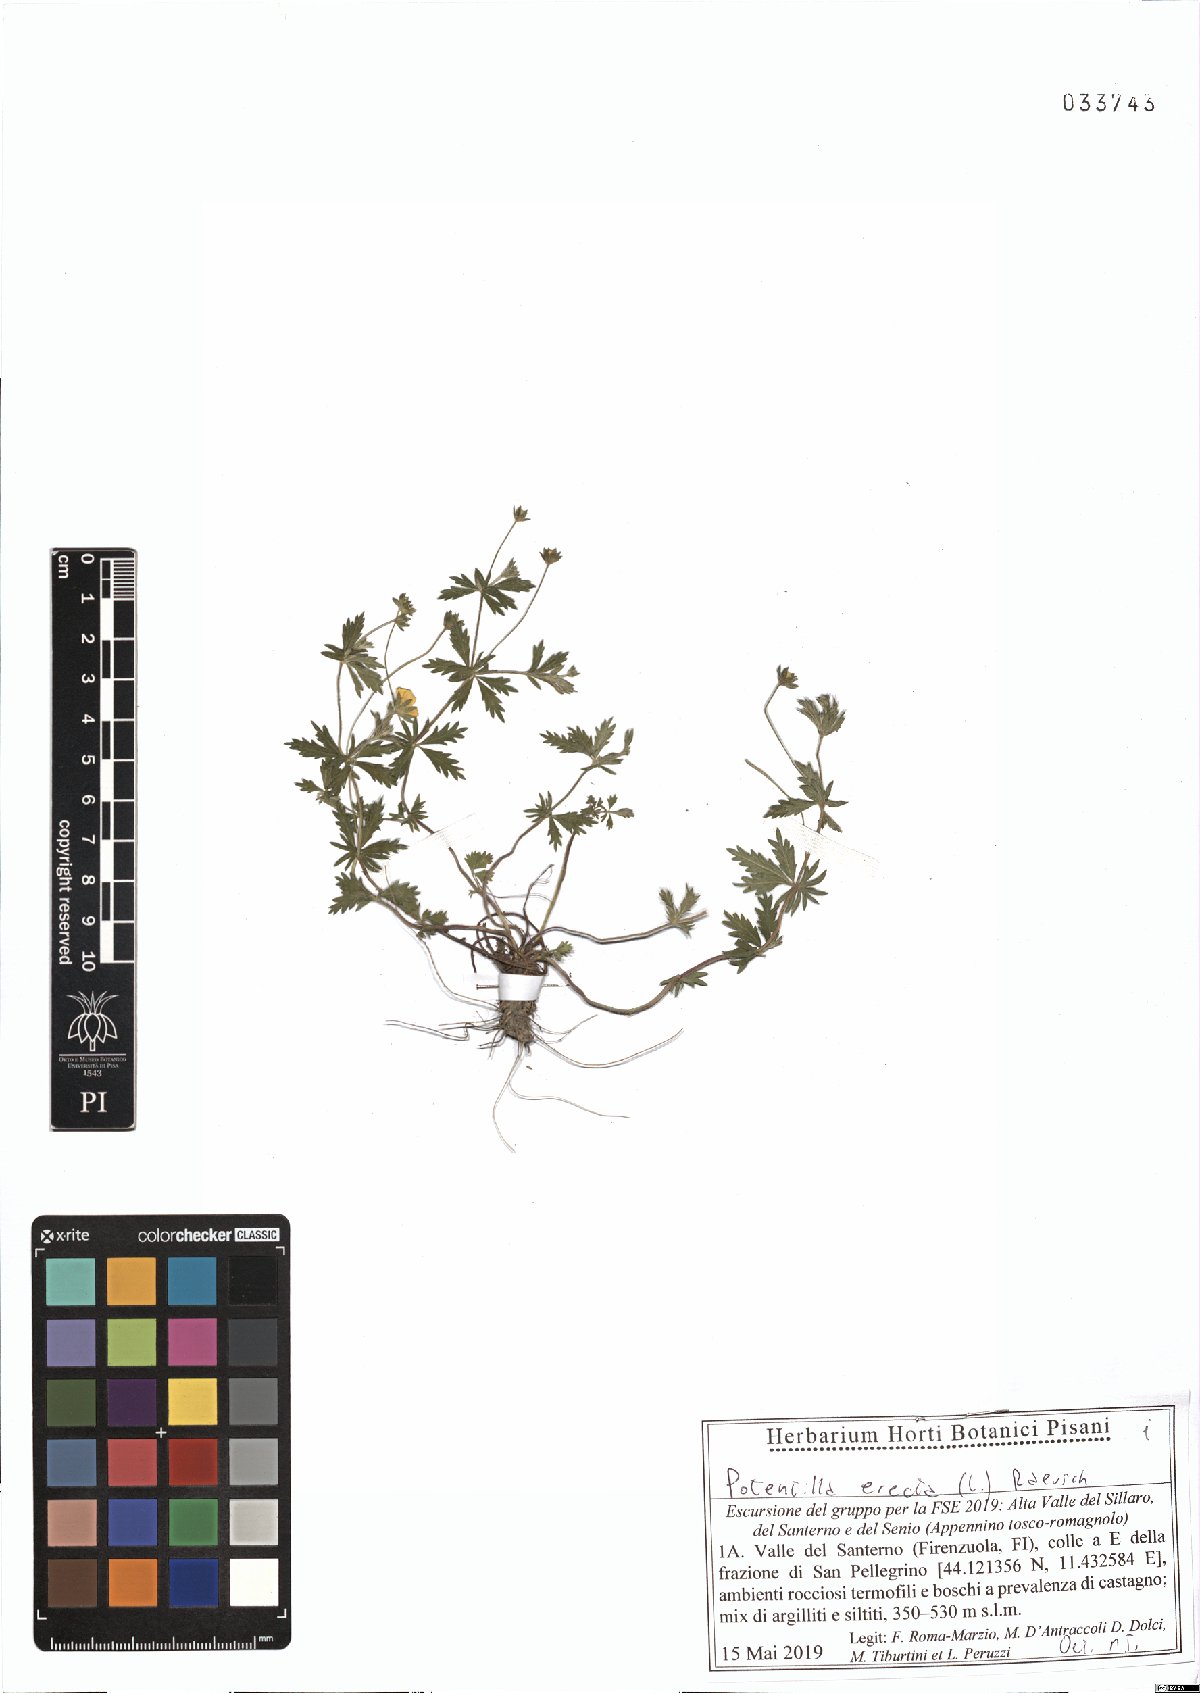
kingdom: Plantae
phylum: Tracheophyta
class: Magnoliopsida
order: Rosales
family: Rosaceae
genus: Potentilla
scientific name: Potentilla erecta
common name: Tormentil
